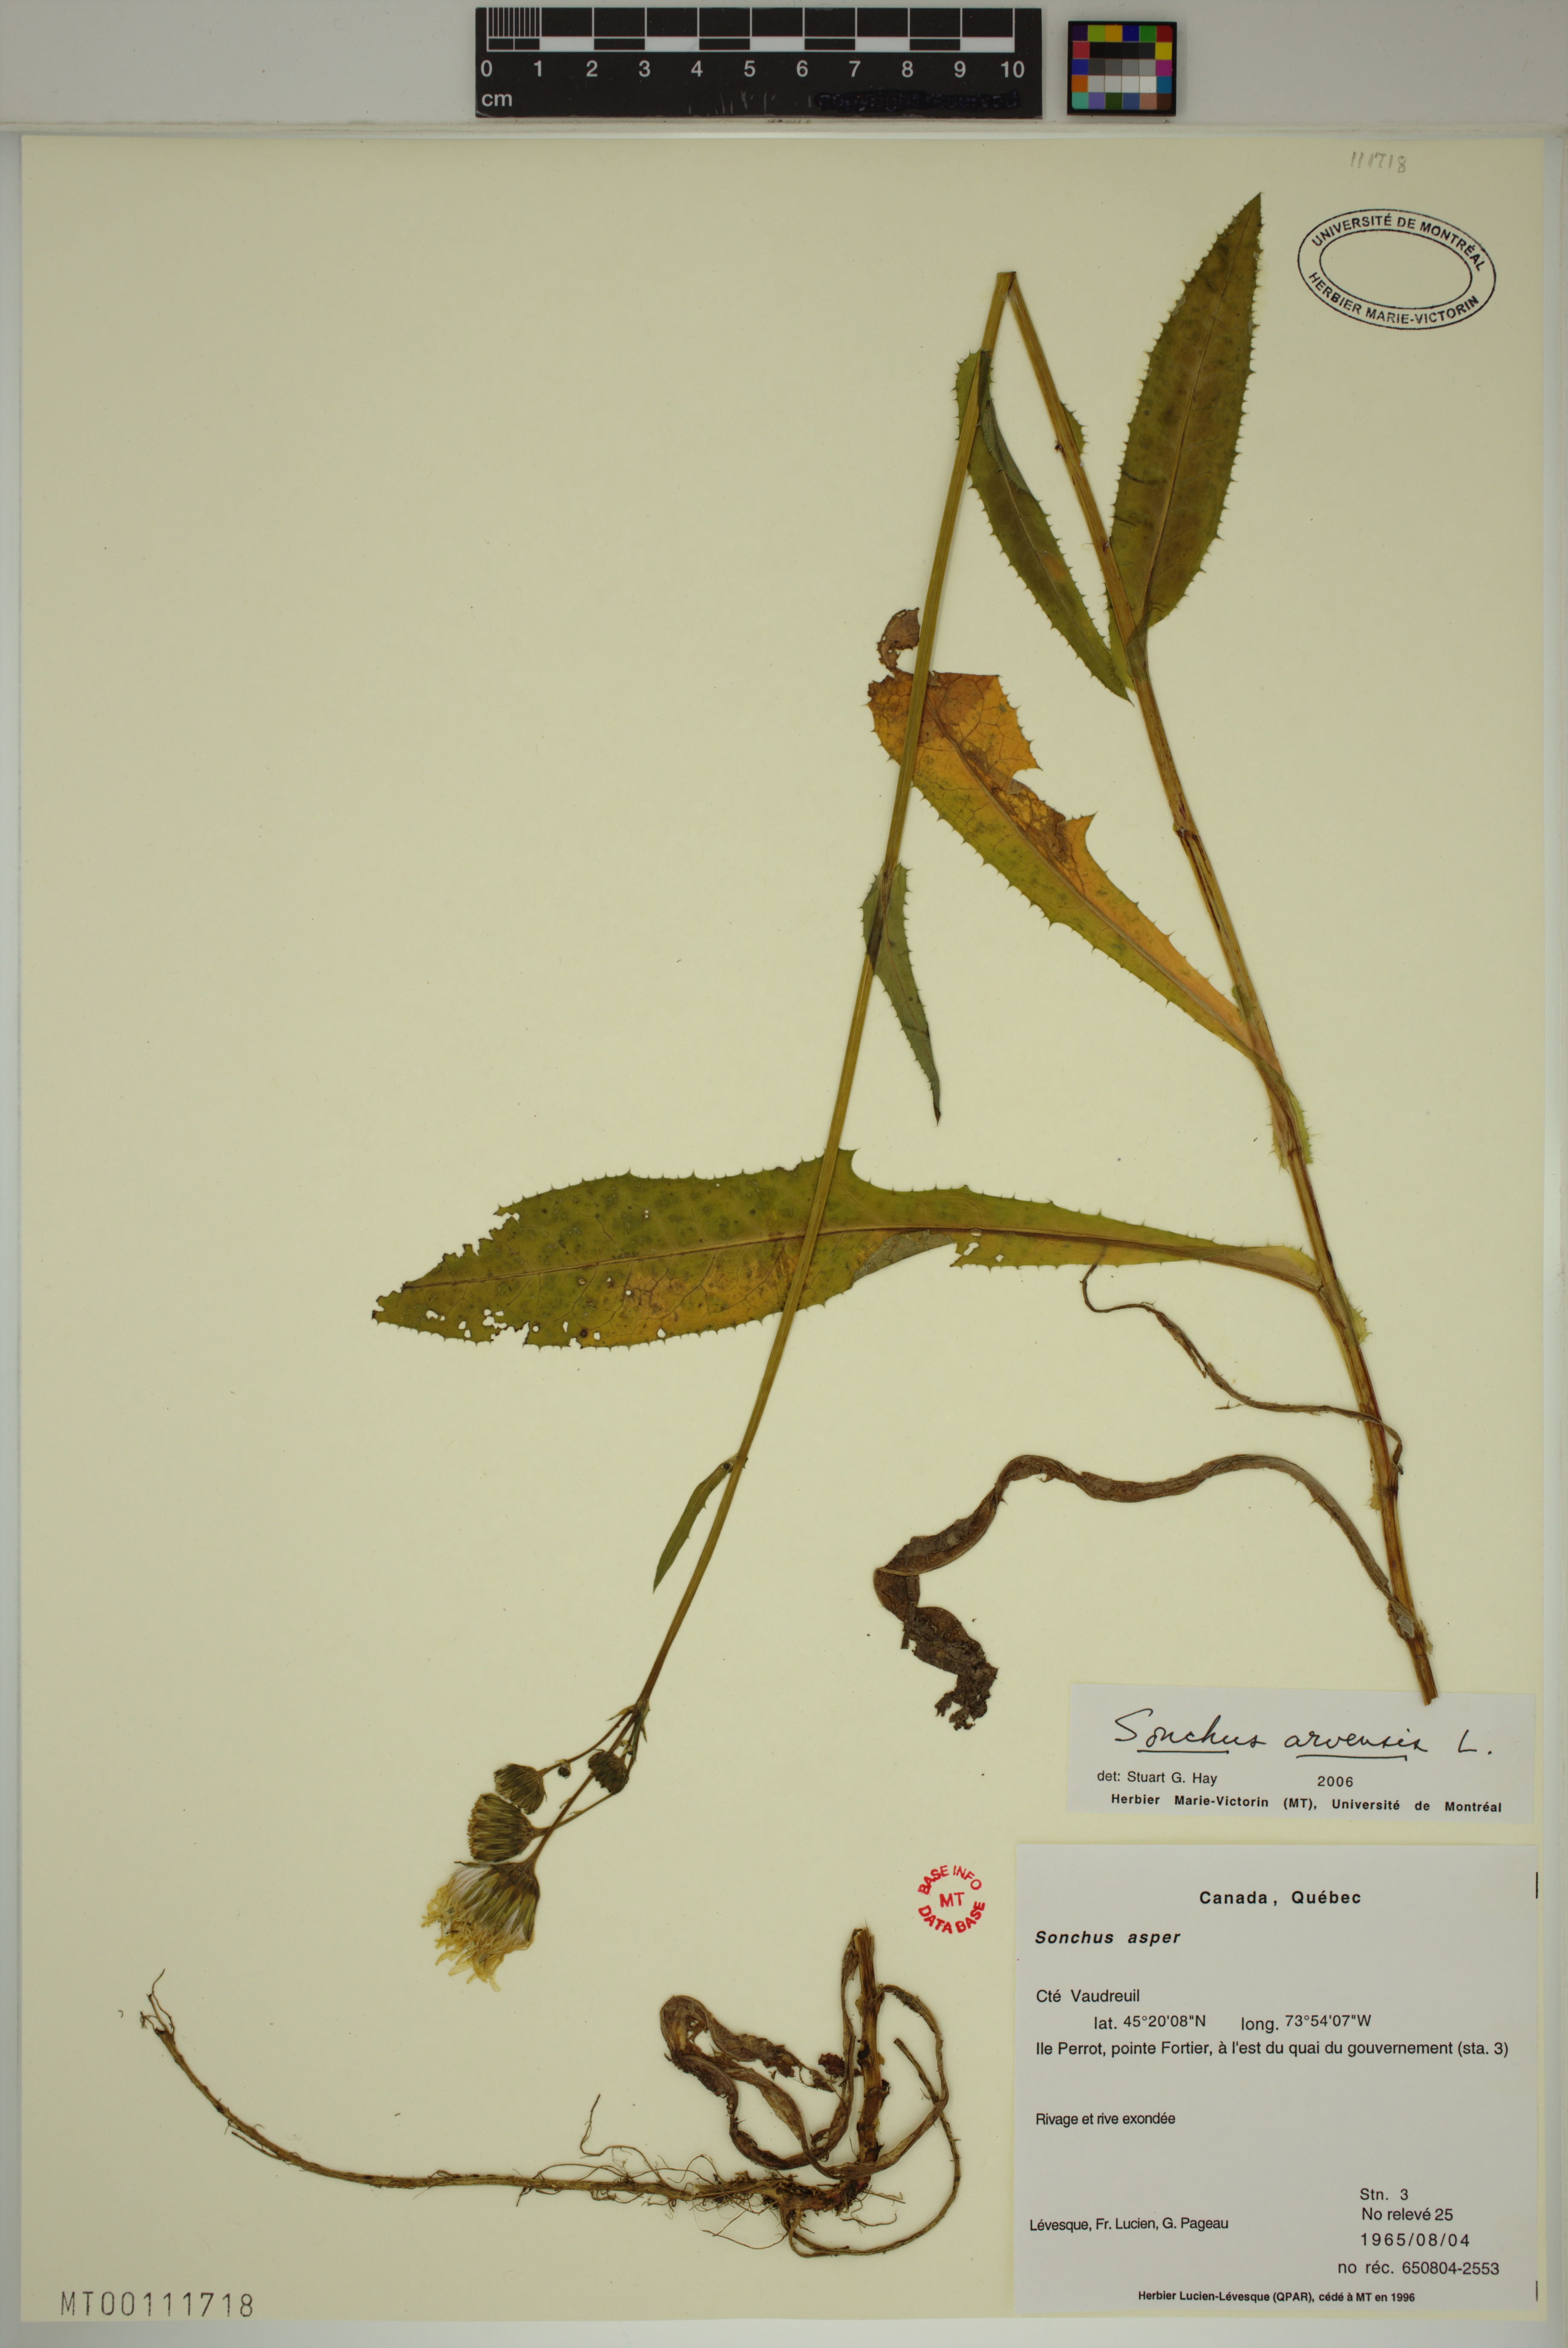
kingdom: Plantae
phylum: Tracheophyta
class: Magnoliopsida
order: Asterales
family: Asteraceae
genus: Sonchus
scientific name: Sonchus arvensis
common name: Perennial sow-thistle
